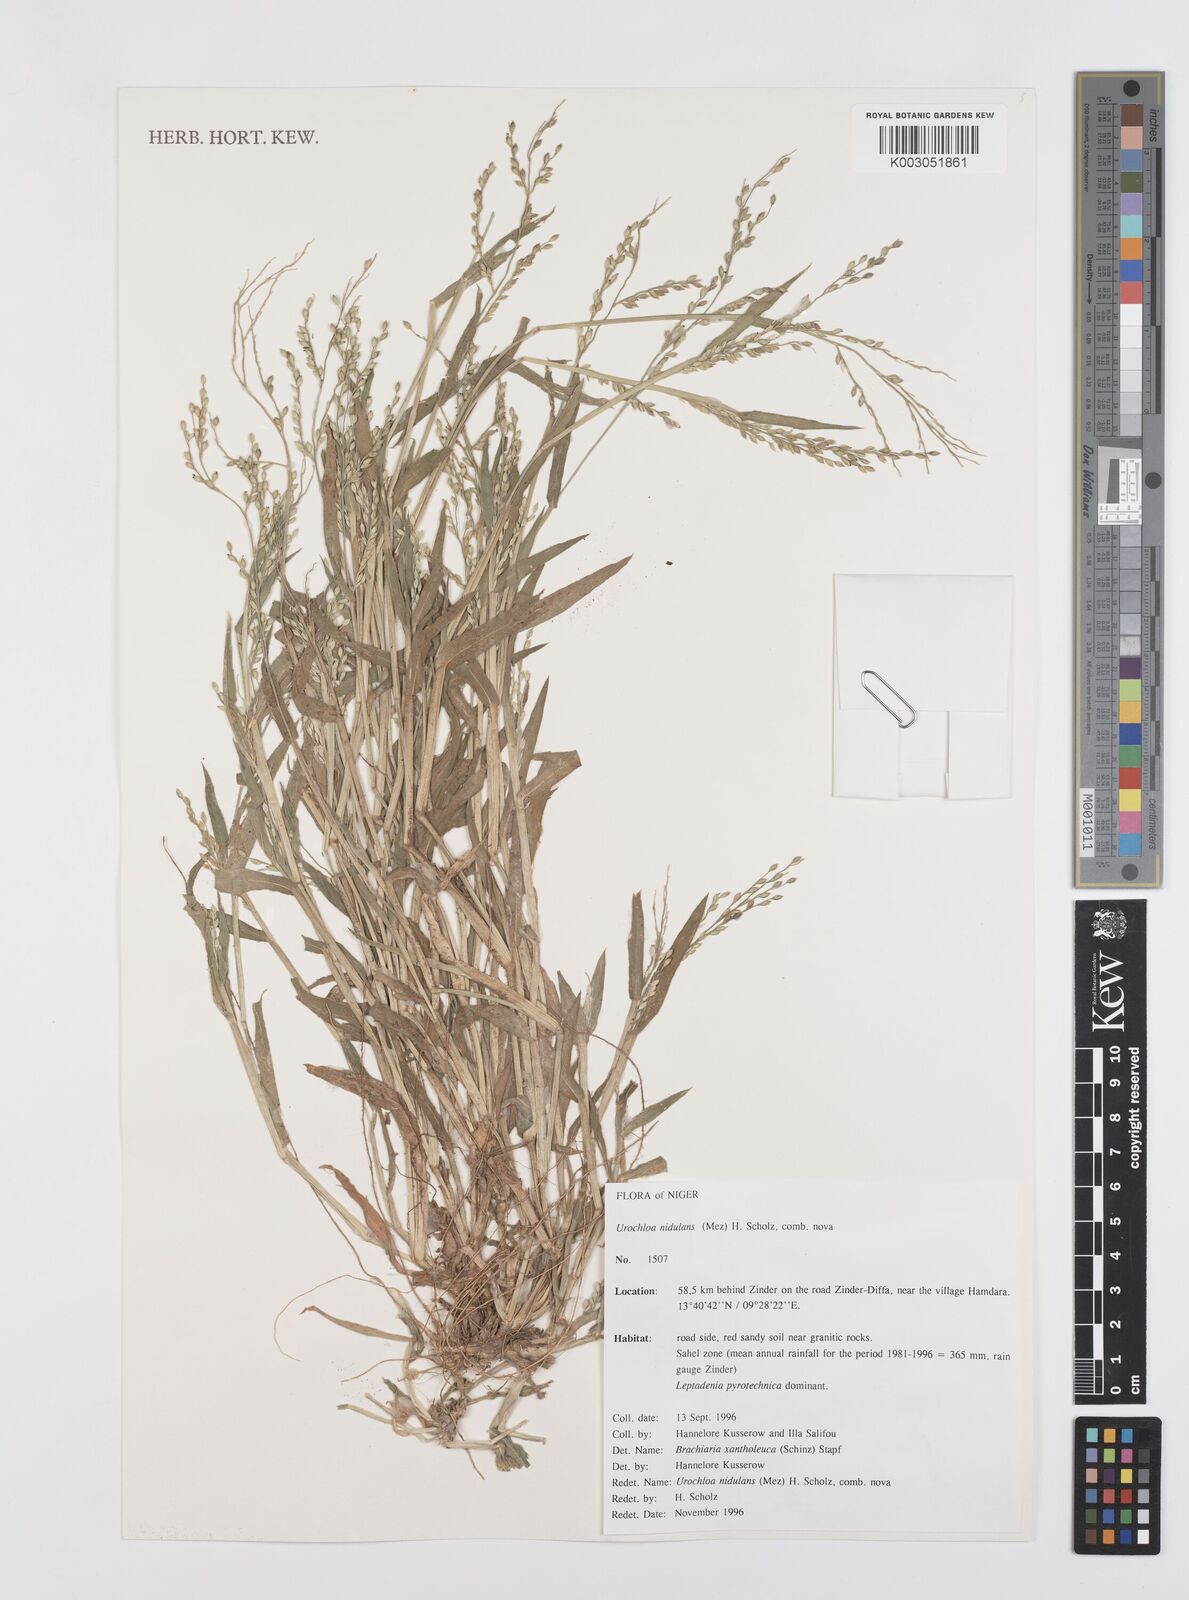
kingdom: Plantae
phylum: Tracheophyta
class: Liliopsida
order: Poales
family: Poaceae
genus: Urochloa
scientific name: Urochloa xantholeuca
